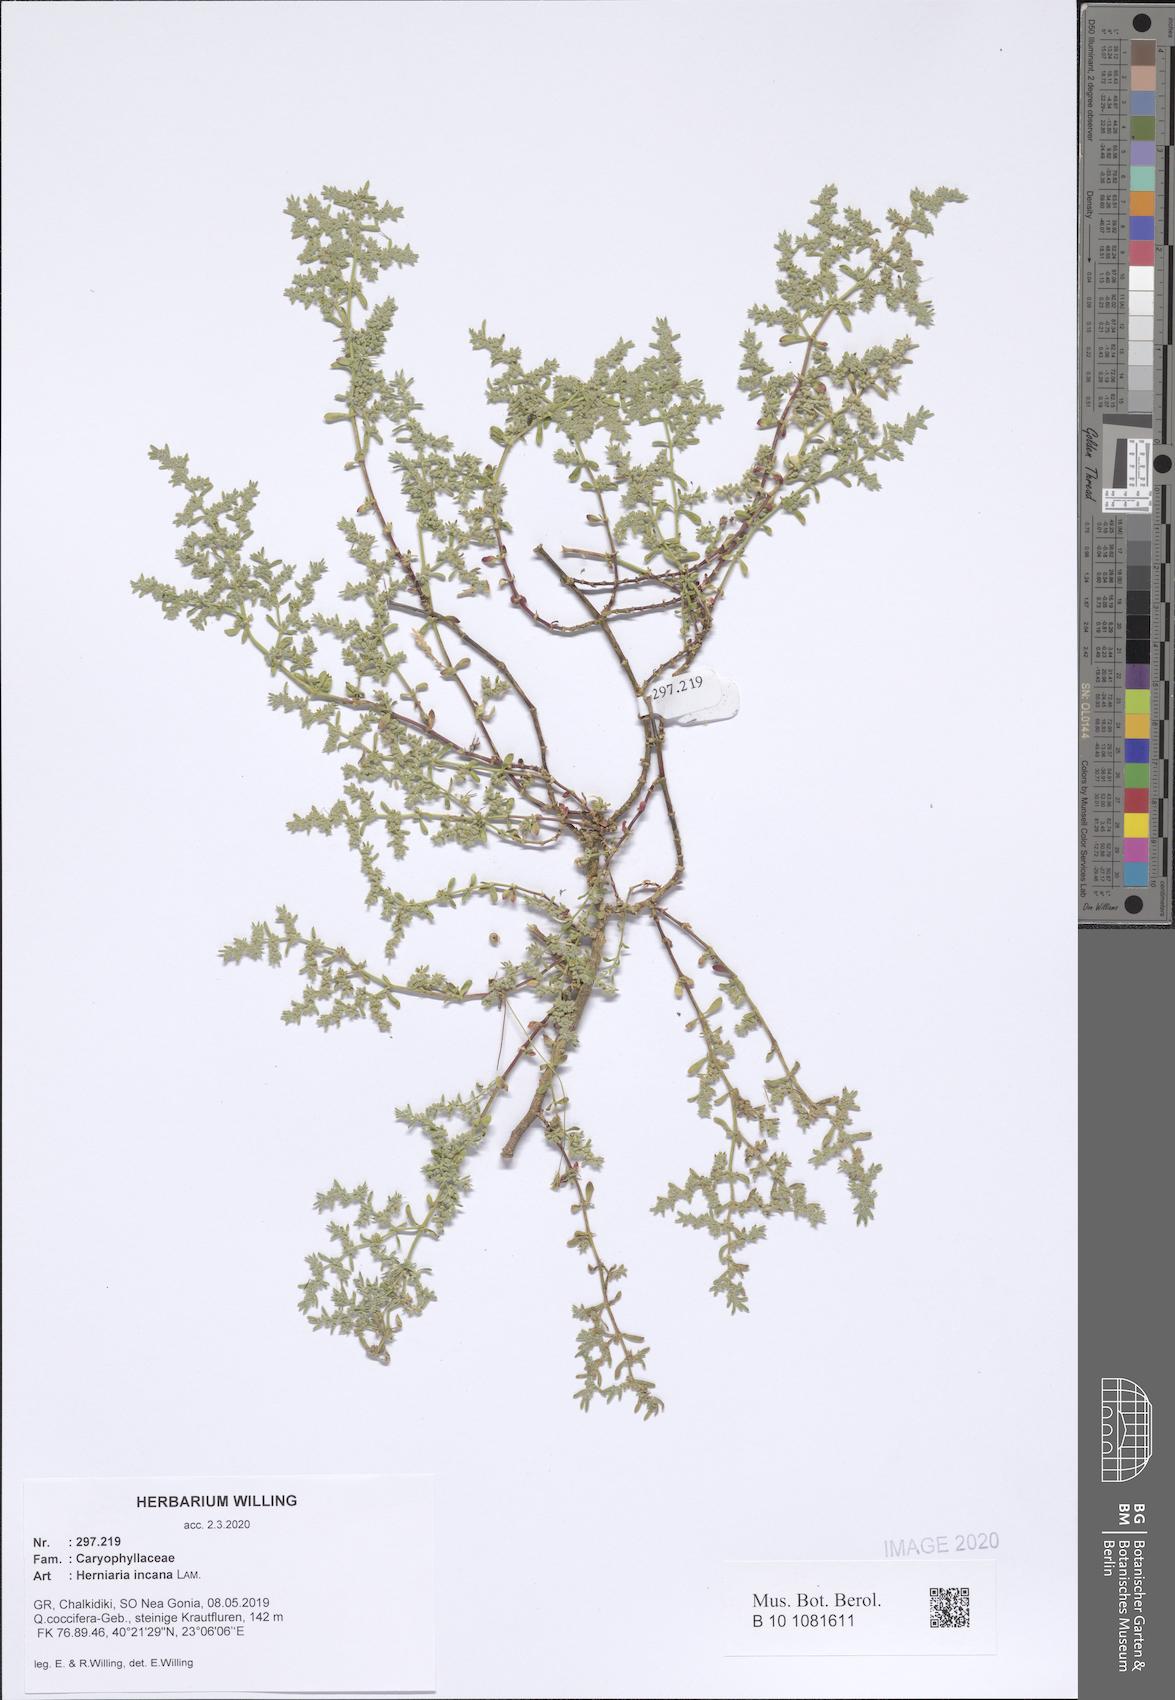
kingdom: Plantae
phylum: Tracheophyta
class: Magnoliopsida
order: Caryophyllales
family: Caryophyllaceae
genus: Herniaria
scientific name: Herniaria incana
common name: Gray rupturewort
